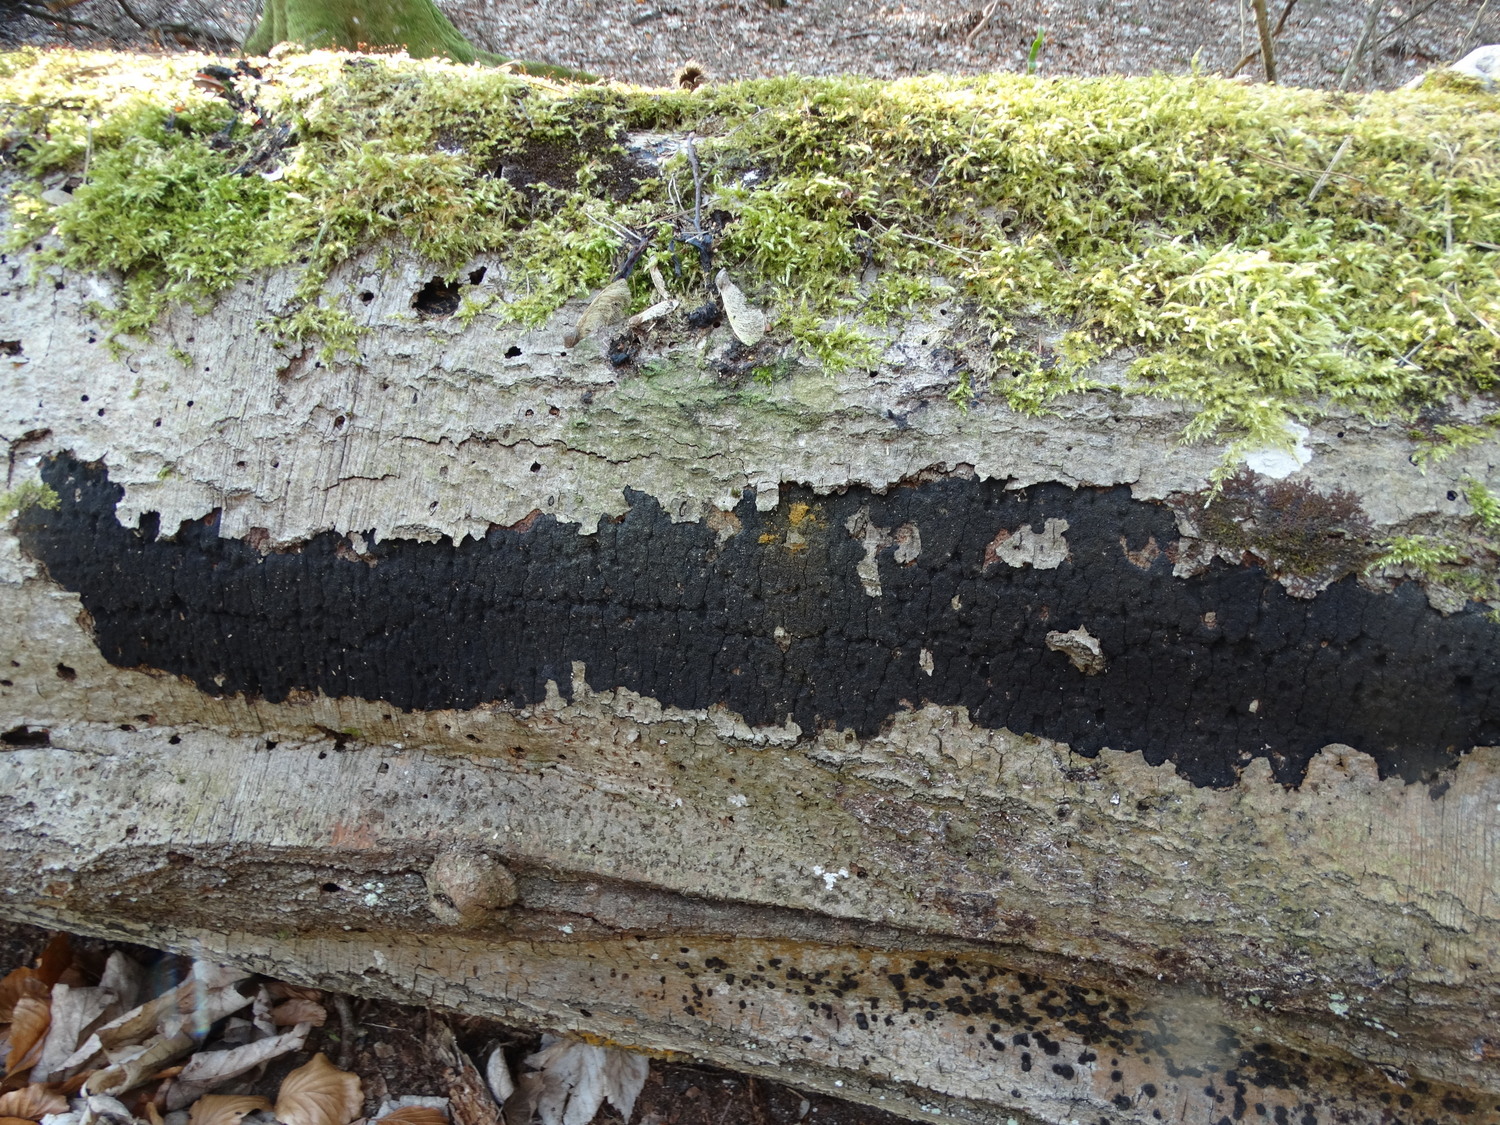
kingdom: Fungi
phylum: Ascomycota
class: Sordariomycetes
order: Xylariales
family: Diatrypaceae
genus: Eutypa
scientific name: Eutypa spinosa
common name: grov kulskorpe
